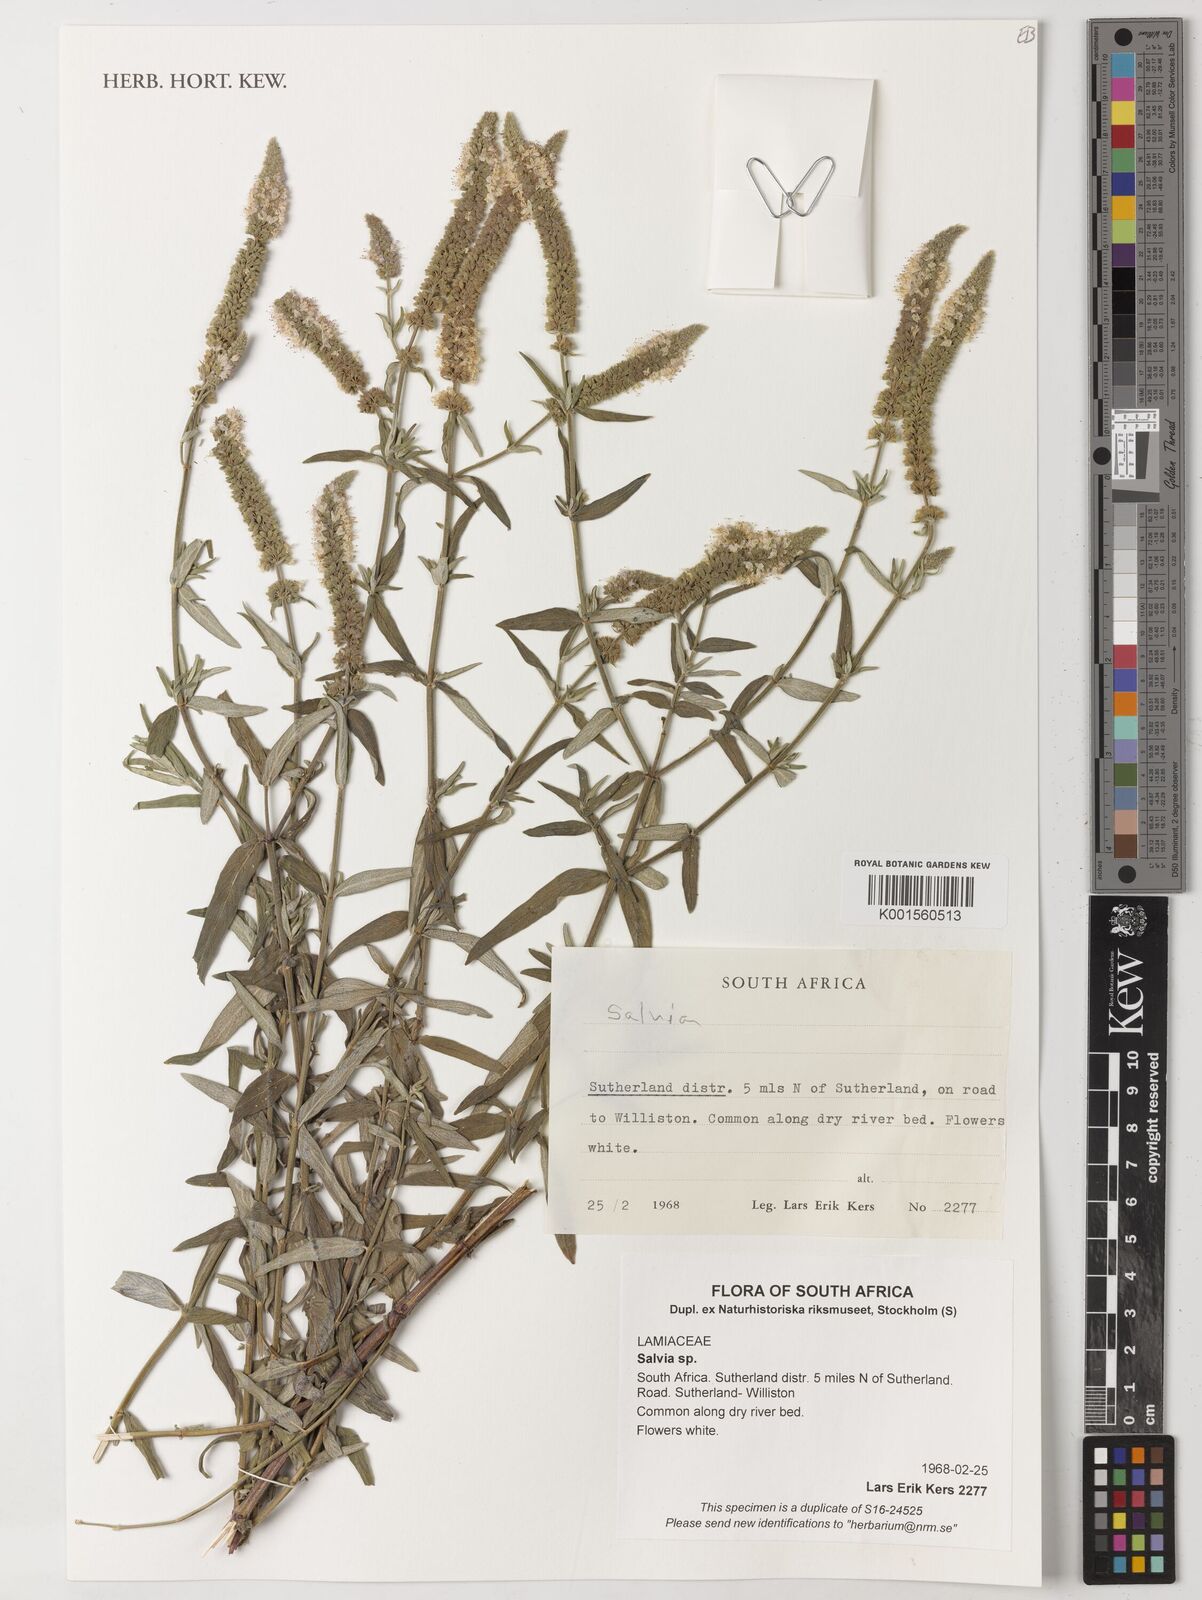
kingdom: Plantae
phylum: Tracheophyta
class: Magnoliopsida
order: Lamiales
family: Lamiaceae
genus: Salvia
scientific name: Salvia
